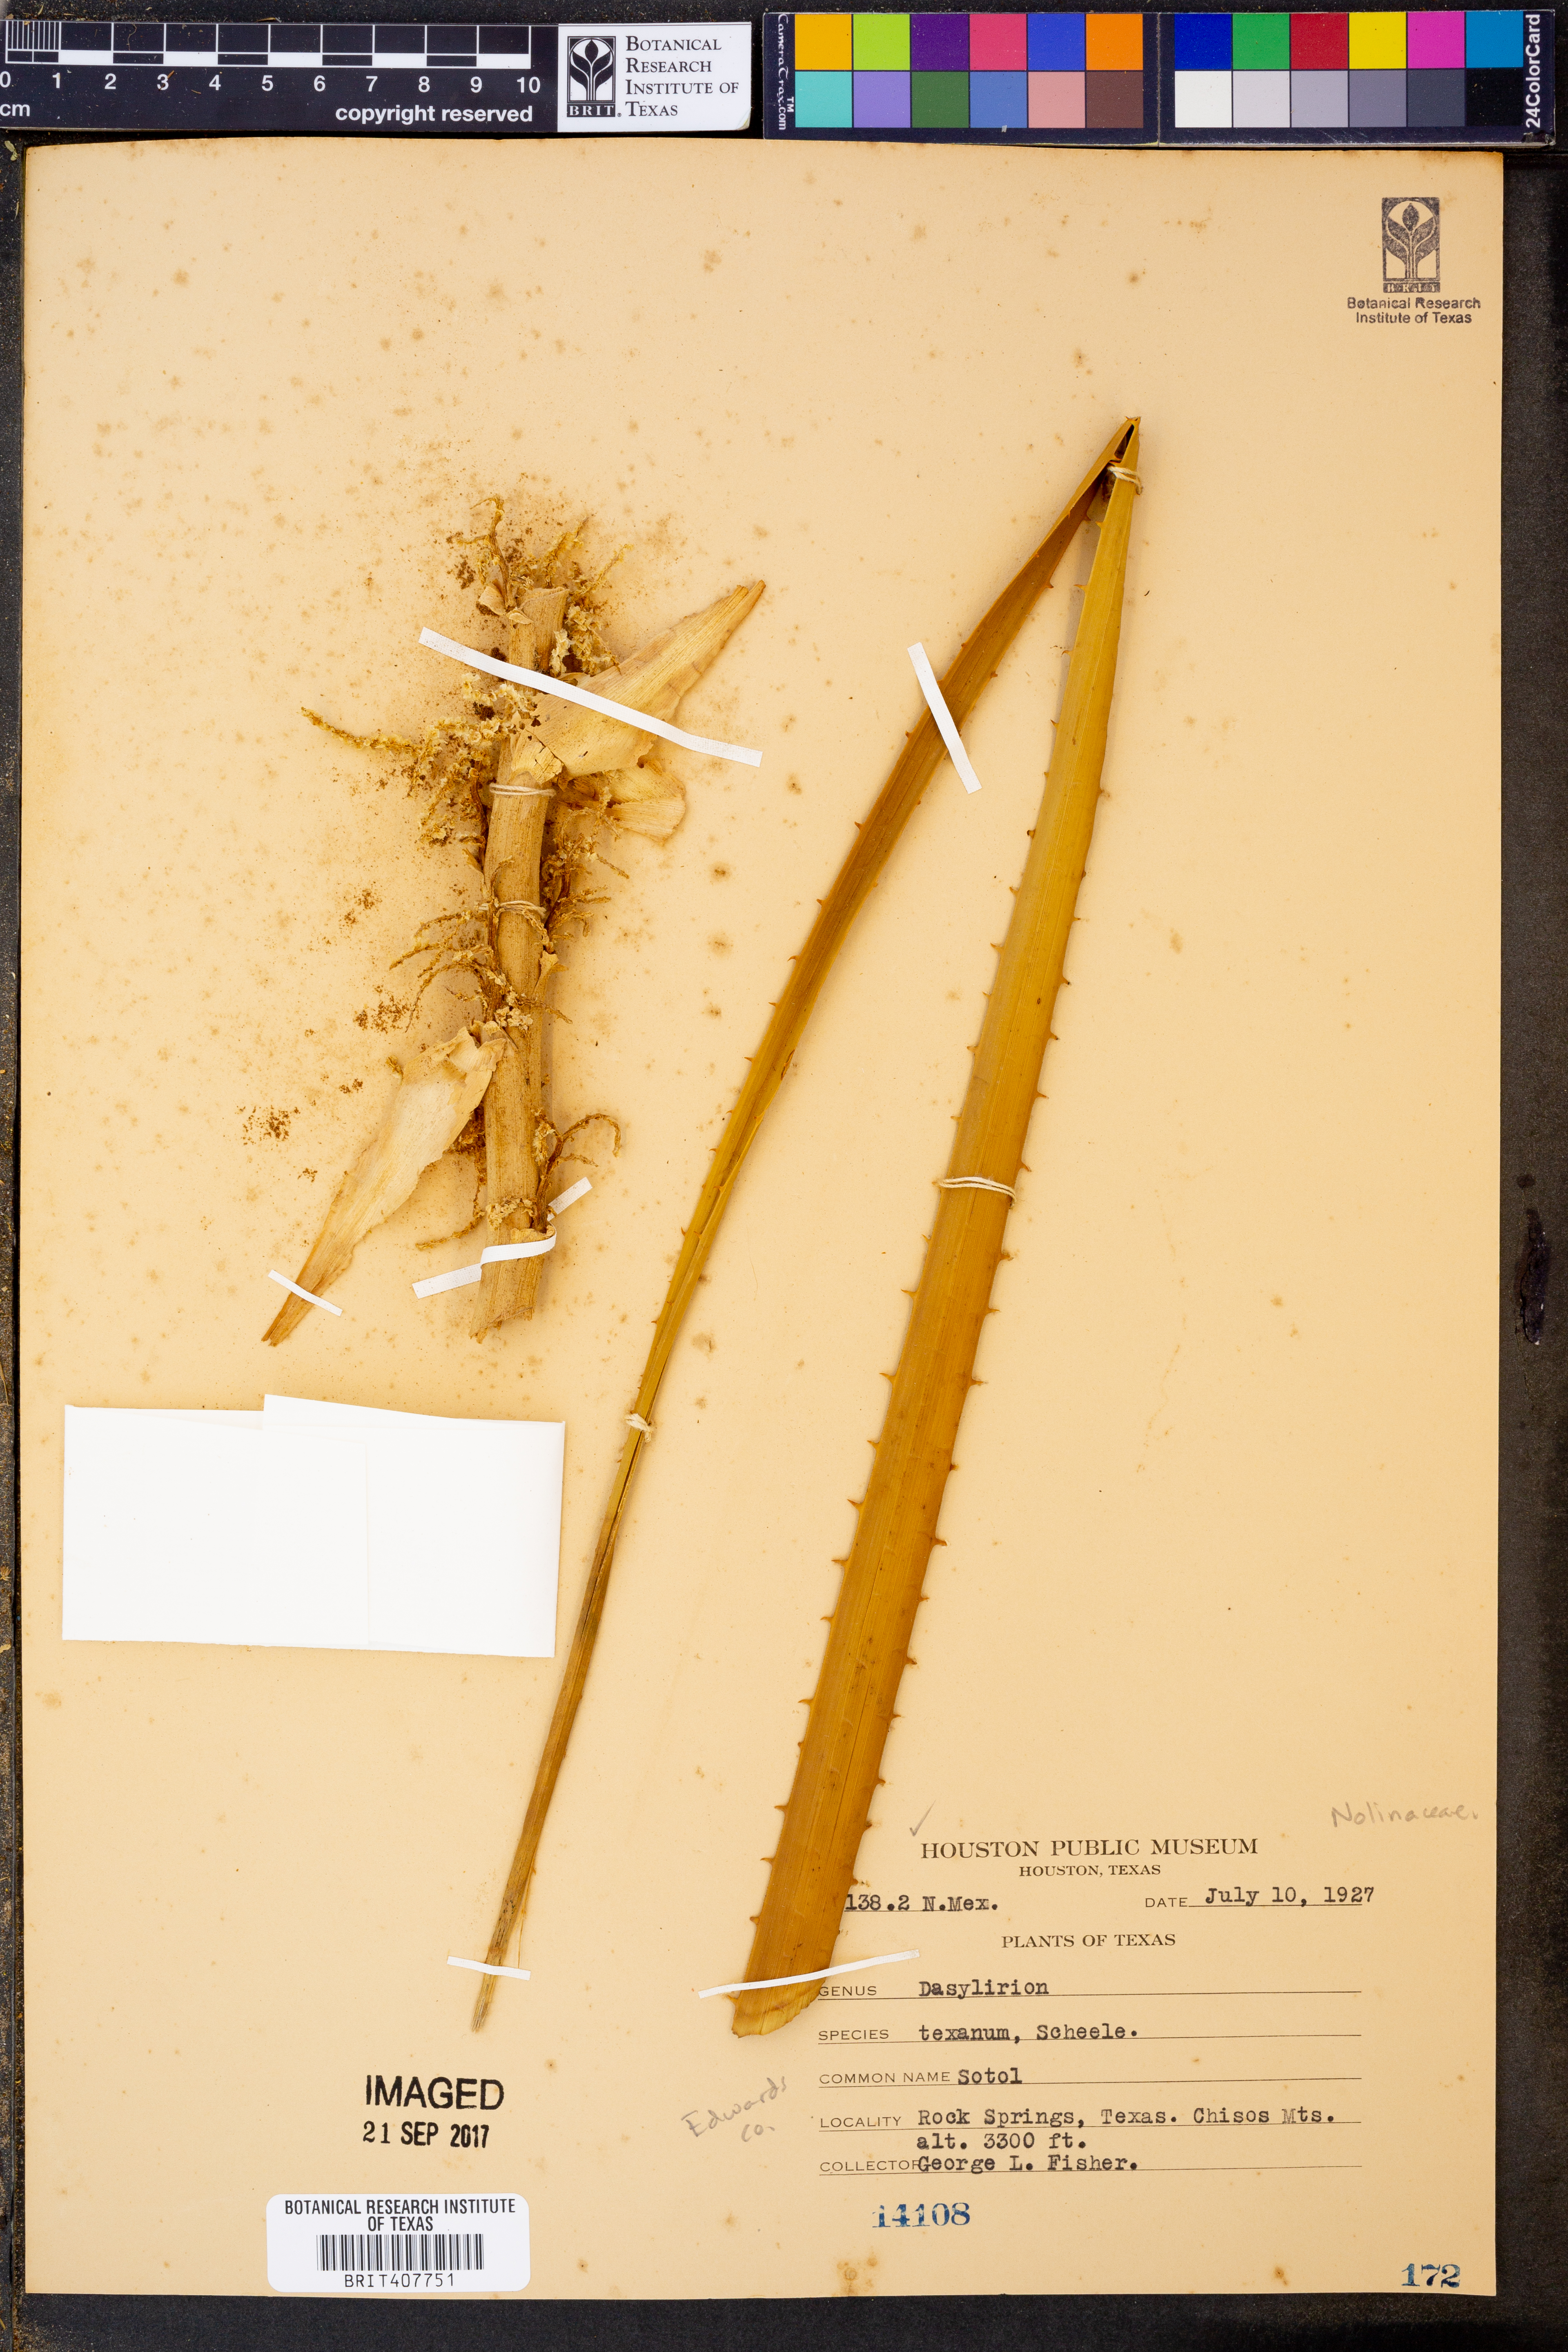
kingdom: Plantae
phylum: Tracheophyta
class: Liliopsida
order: Asparagales
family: Asparagaceae
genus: Dasylirion
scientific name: Dasylirion texanum
